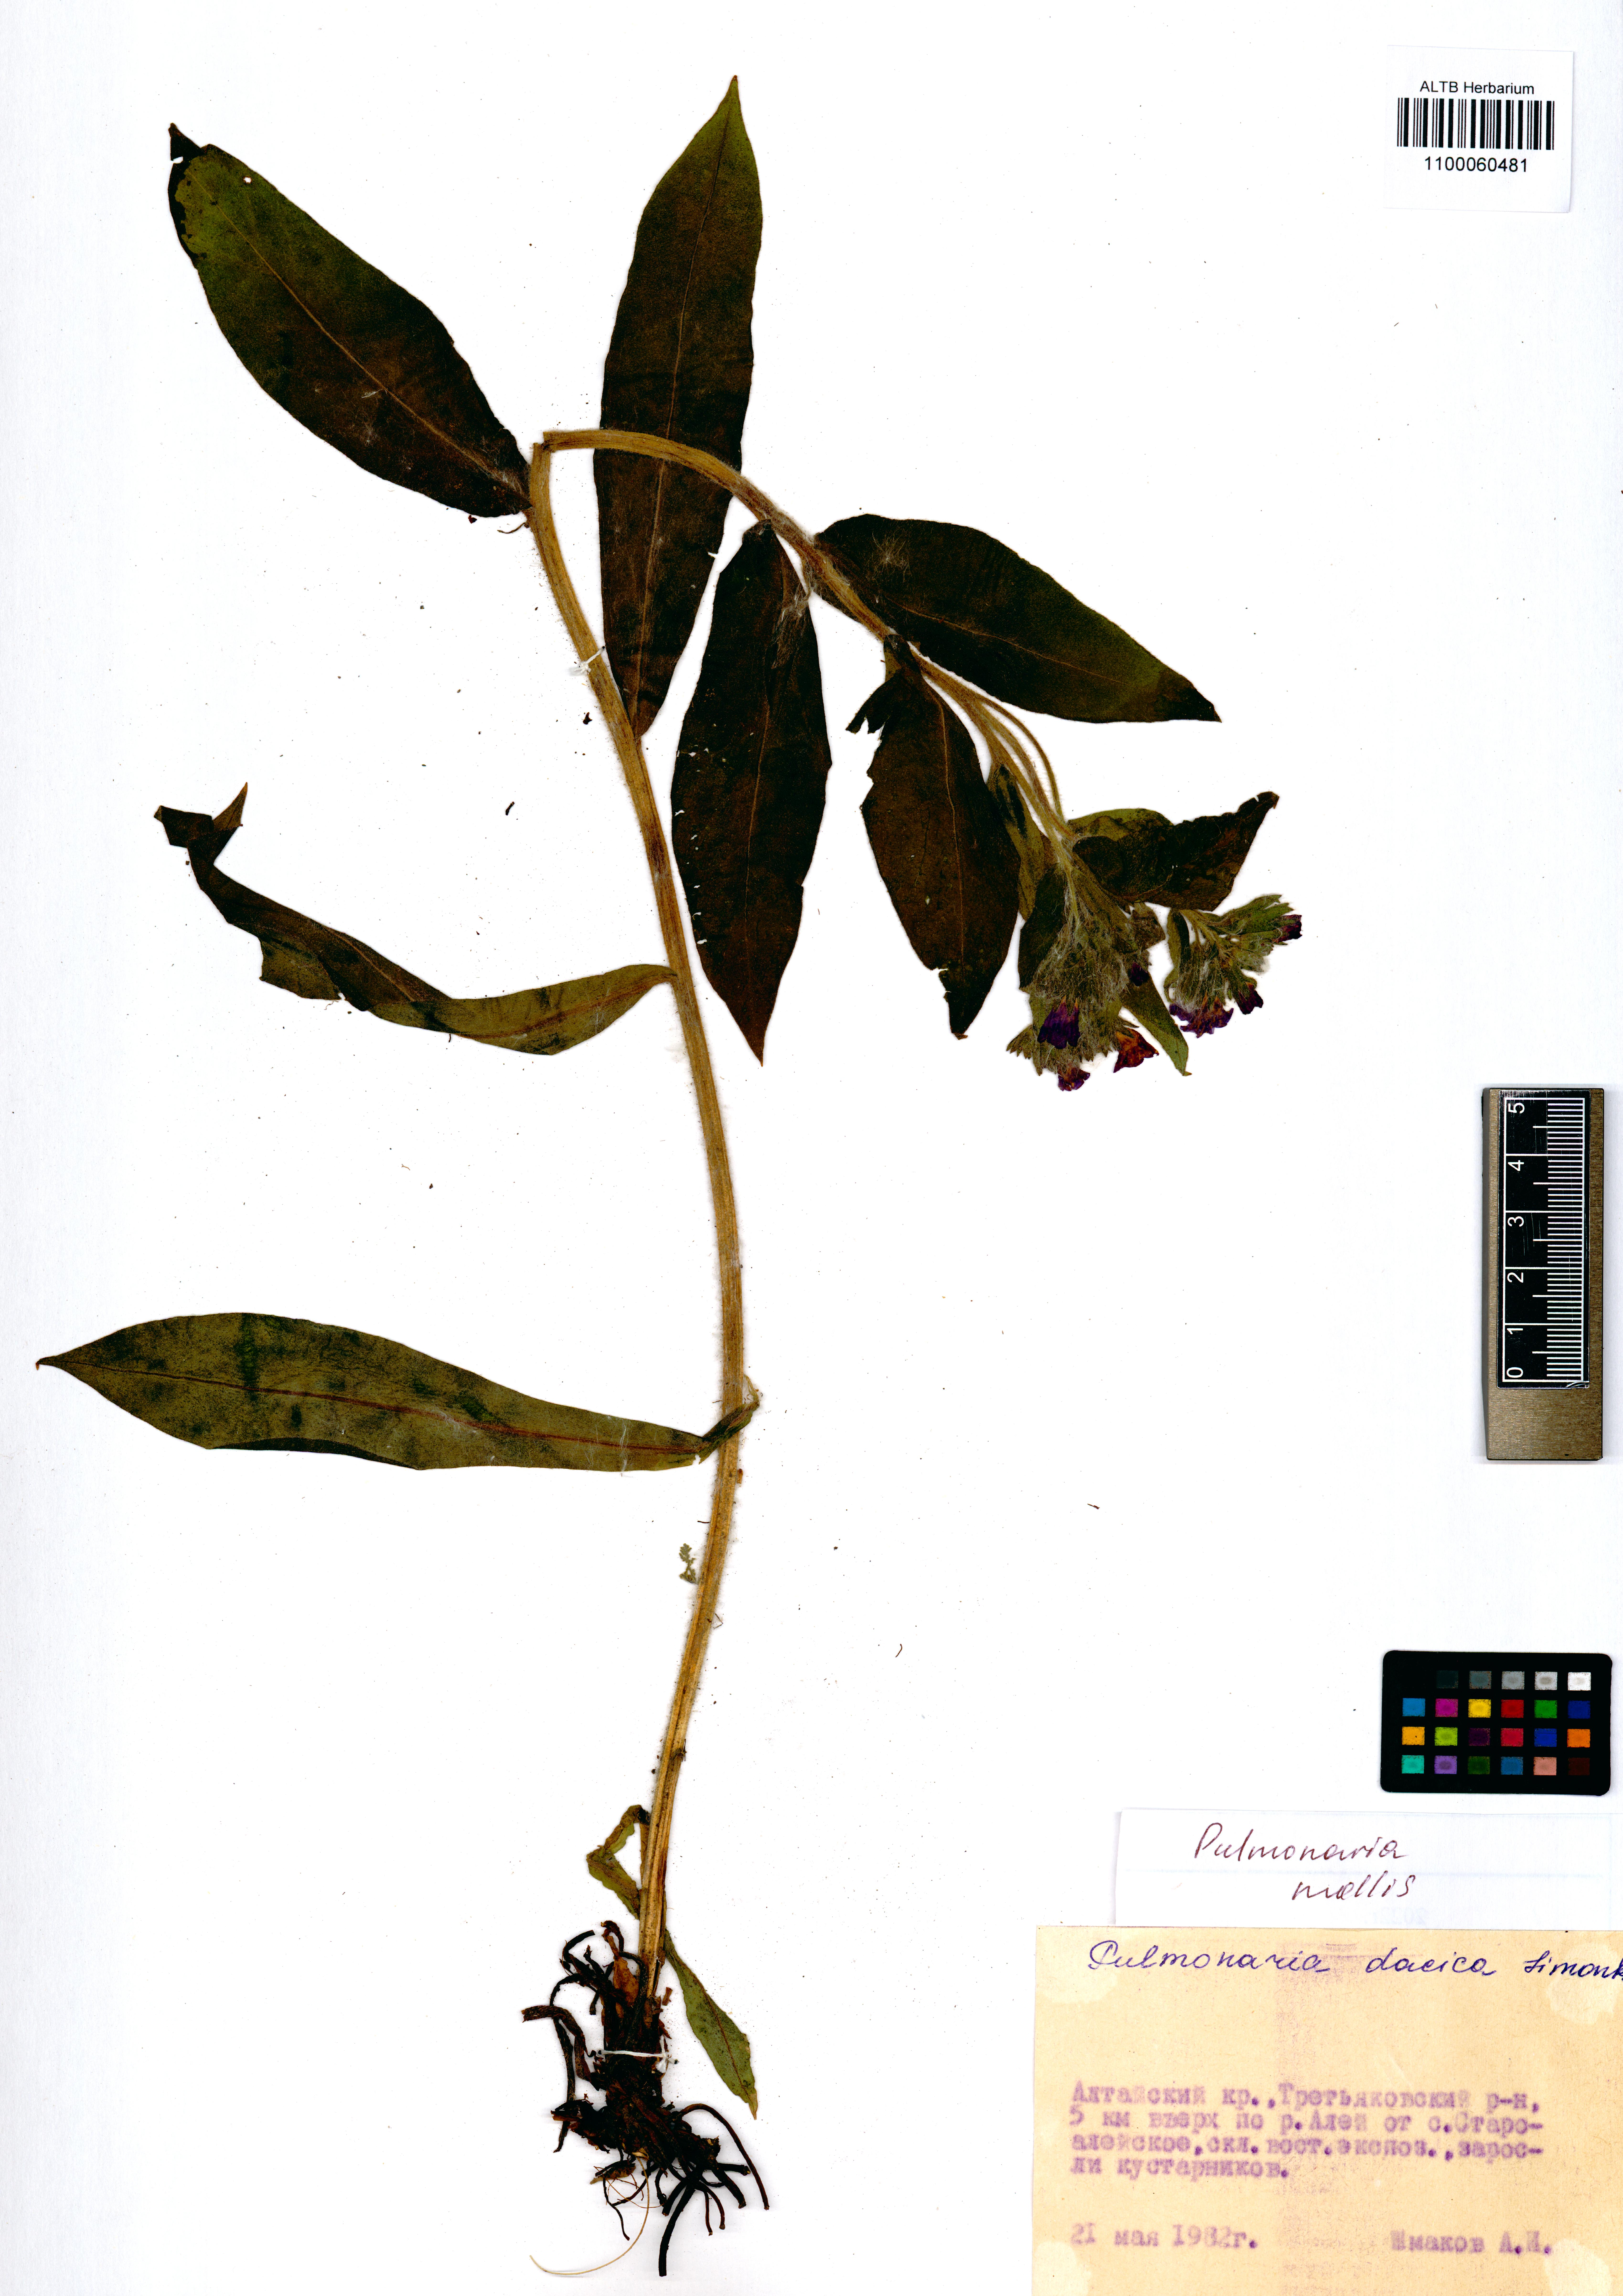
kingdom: Plantae
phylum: Tracheophyta
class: Magnoliopsida
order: Boraginales
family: Boraginaceae
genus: Pulmonaria
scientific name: Pulmonaria mollis
